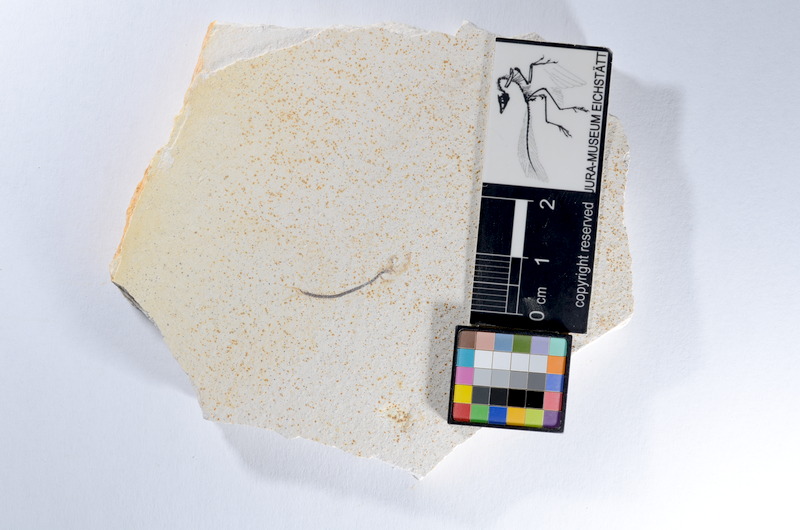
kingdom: Animalia
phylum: Chordata
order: Salmoniformes
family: Orthogonikleithridae
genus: Orthogonikleithrus
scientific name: Orthogonikleithrus hoelli
